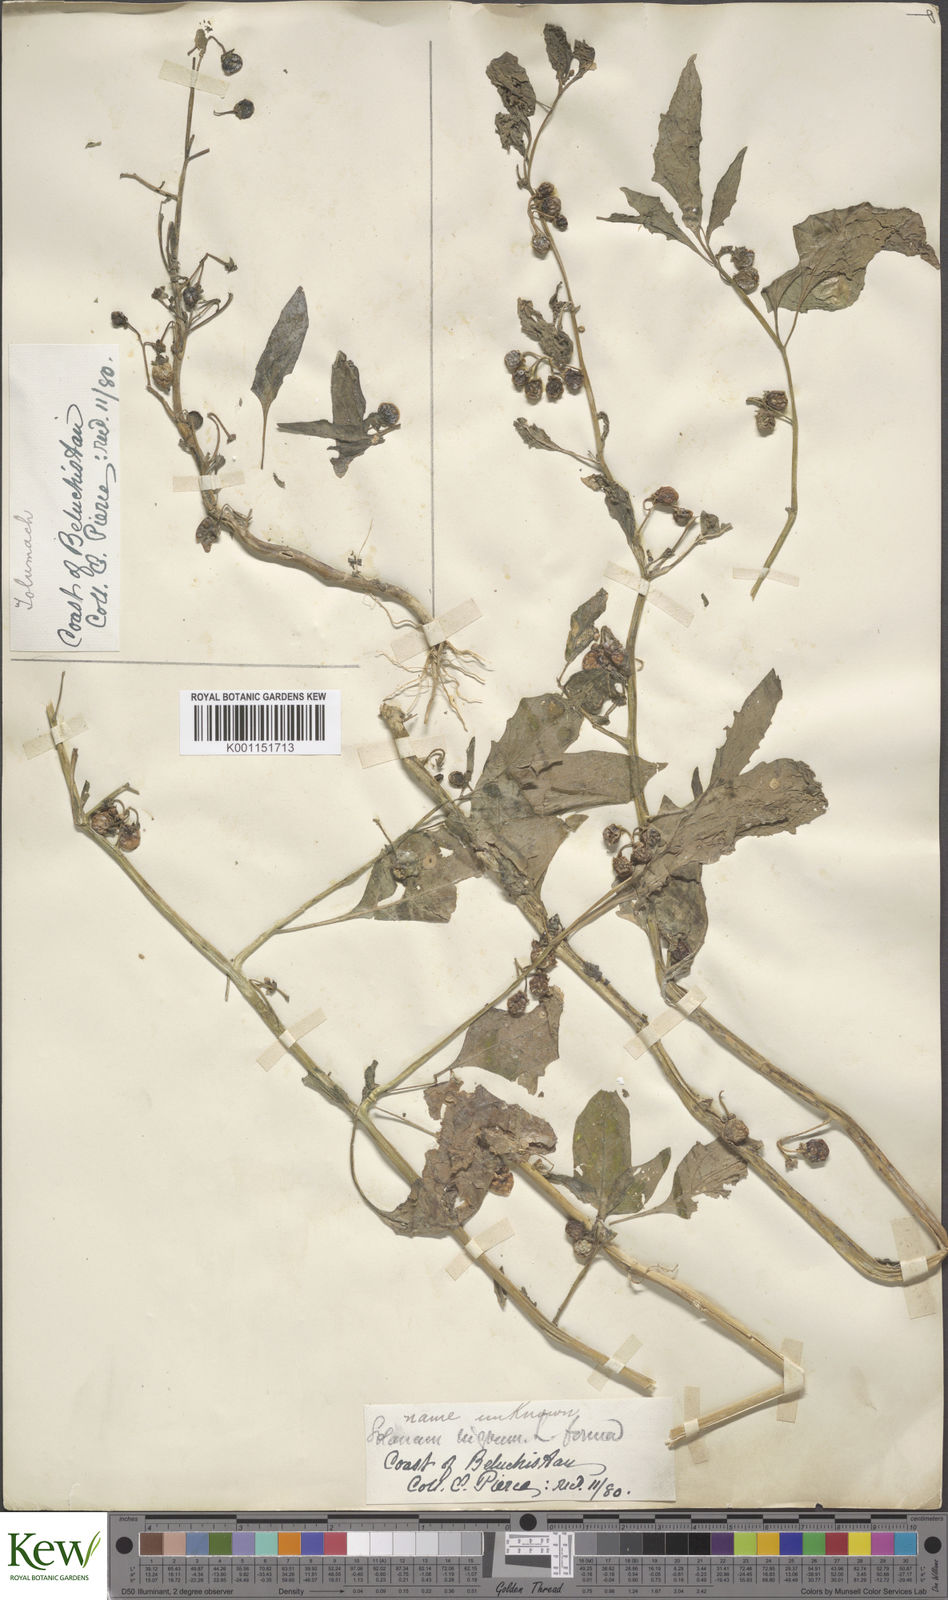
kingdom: Plantae
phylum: Tracheophyta
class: Magnoliopsida
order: Solanales
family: Solanaceae
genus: Solanum
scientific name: Solanum villosum
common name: Red nightshade
